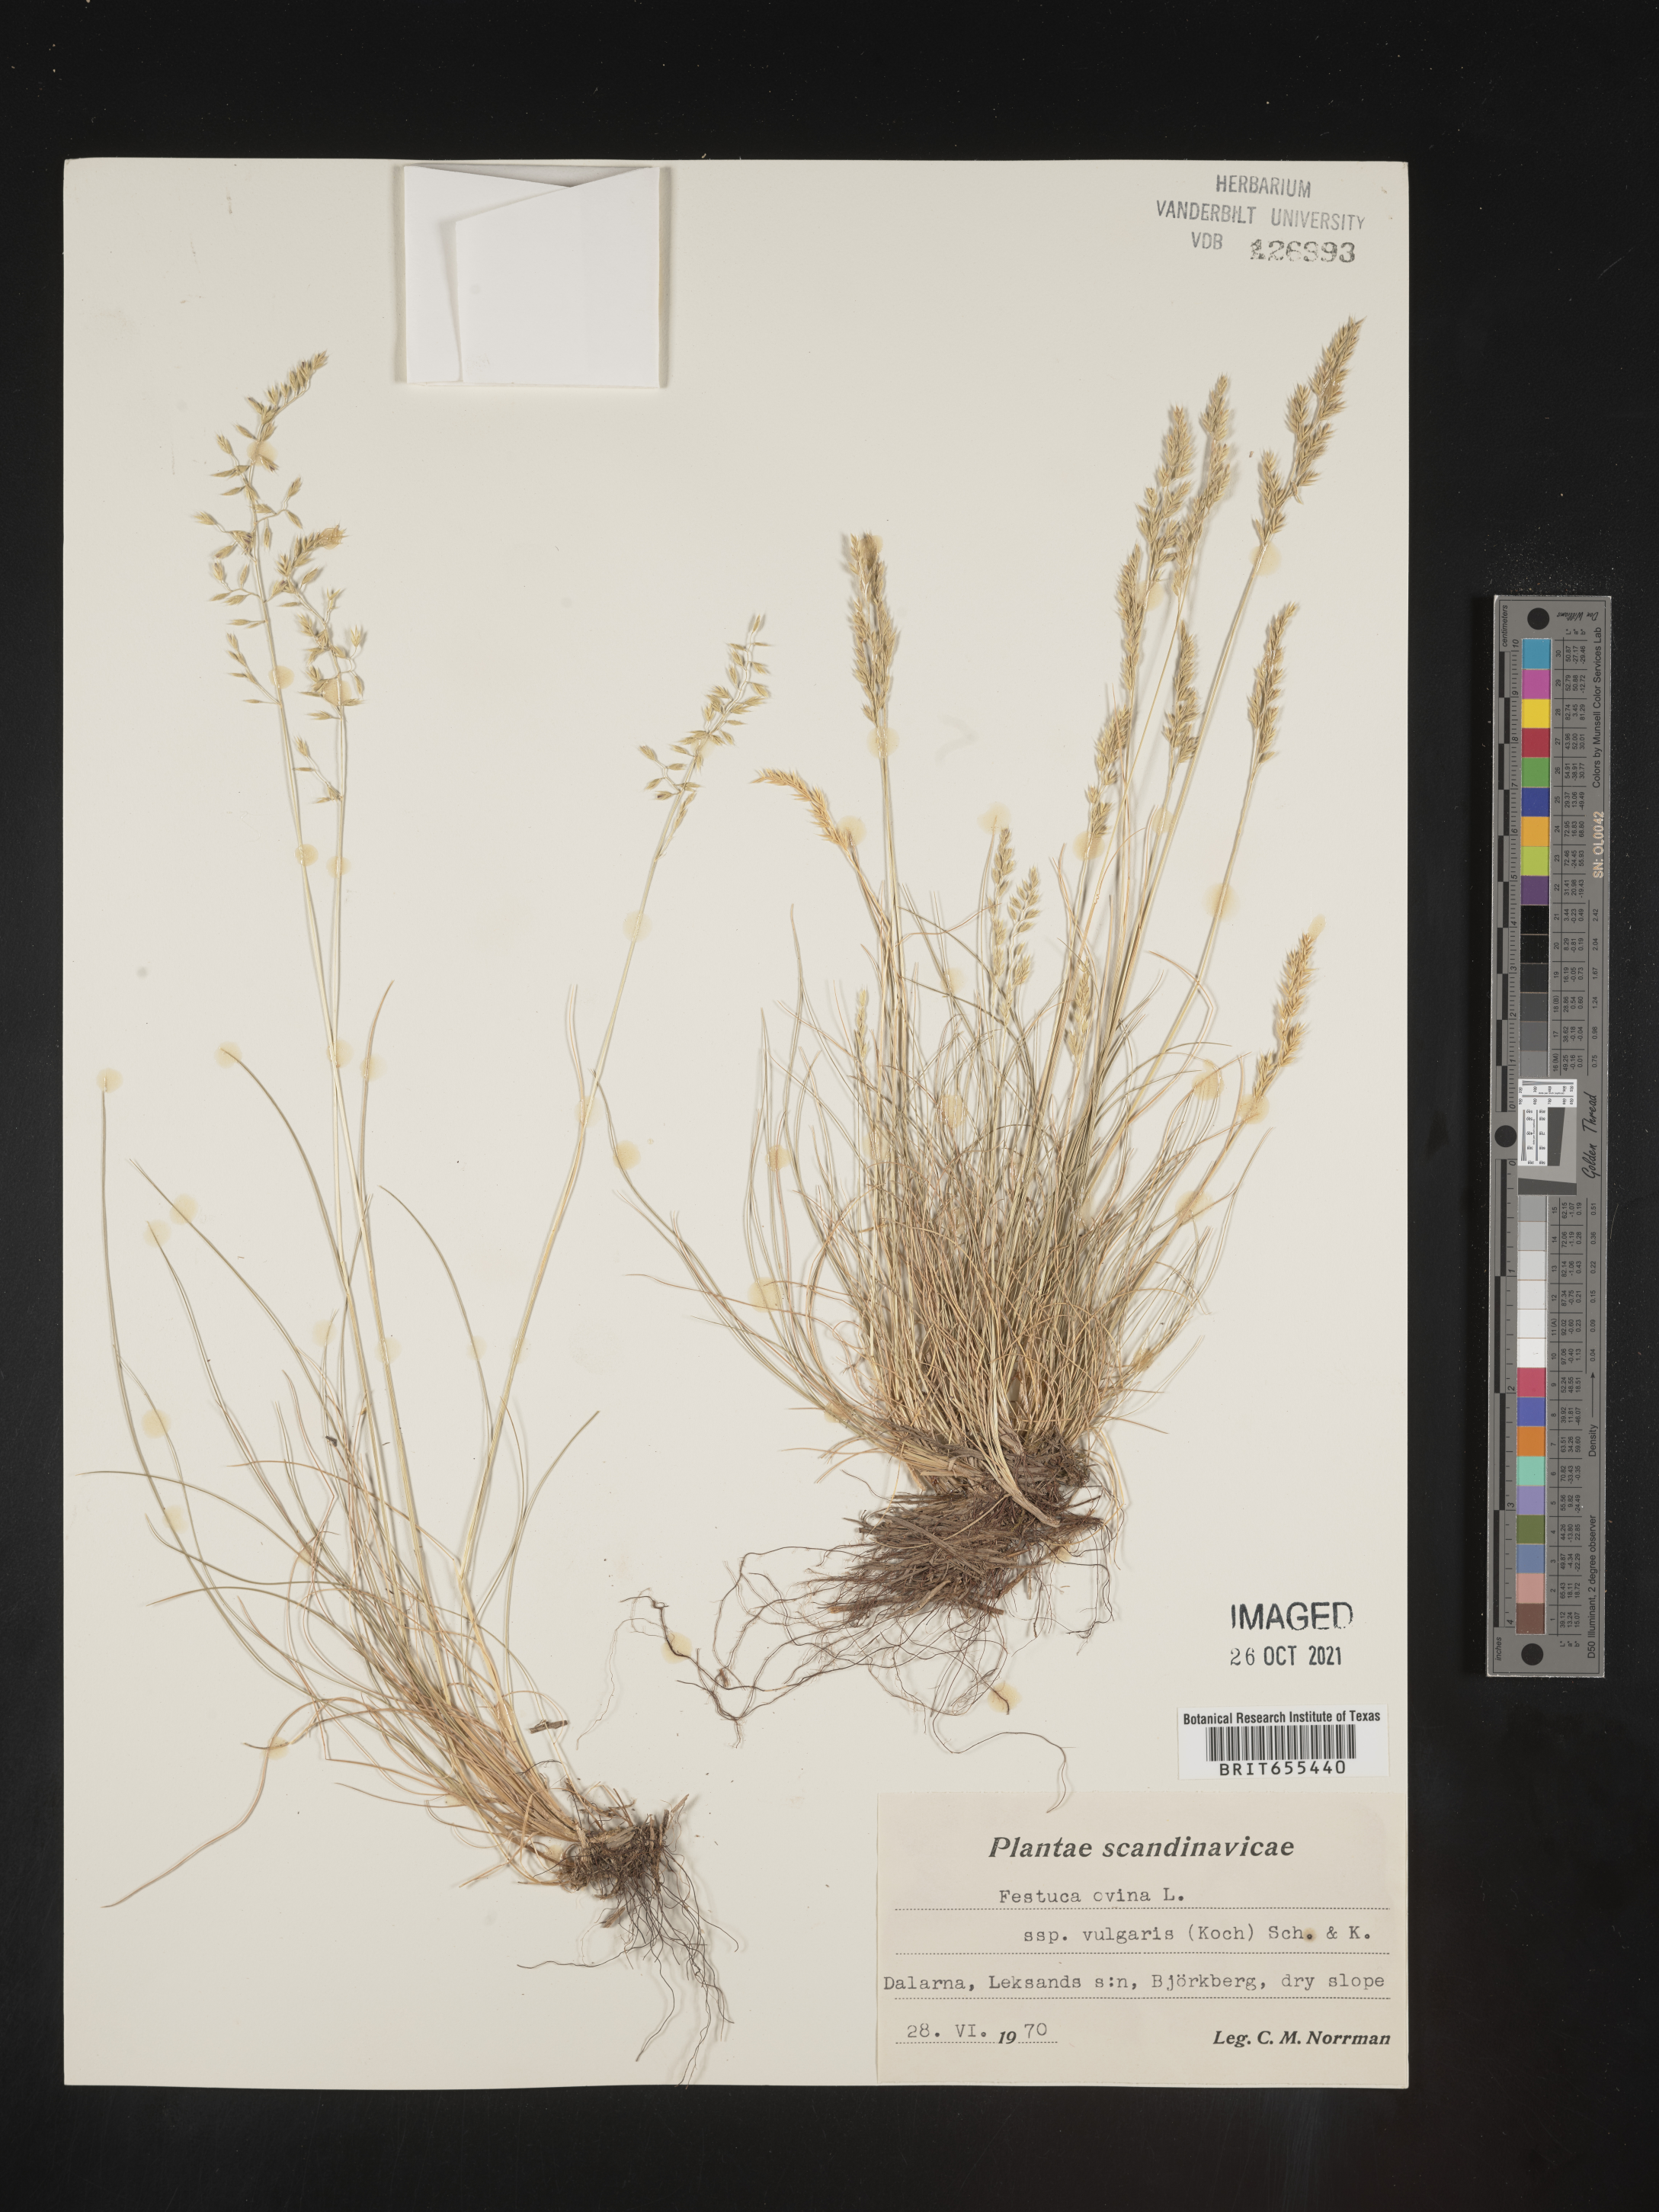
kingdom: Plantae
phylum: Tracheophyta
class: Liliopsida
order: Poales
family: Poaceae
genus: Festuca
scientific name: Festuca
